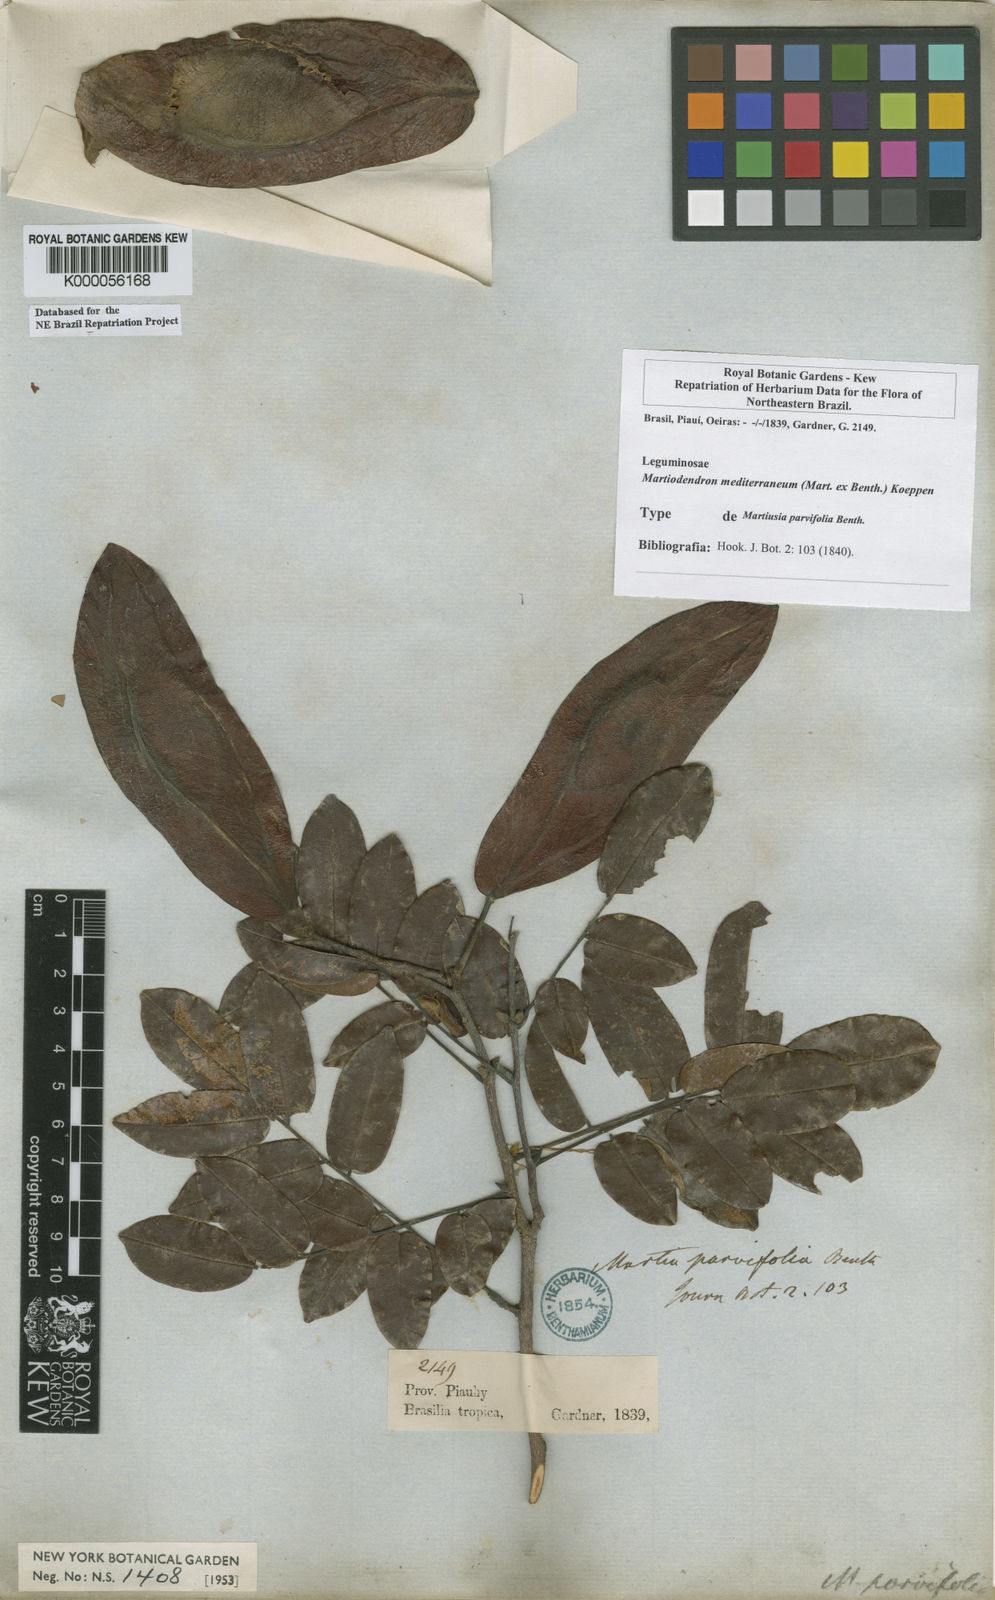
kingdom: Plantae
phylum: Tracheophyta
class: Magnoliopsida
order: Fabales
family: Fabaceae
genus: Martiodendron
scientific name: Martiodendron
